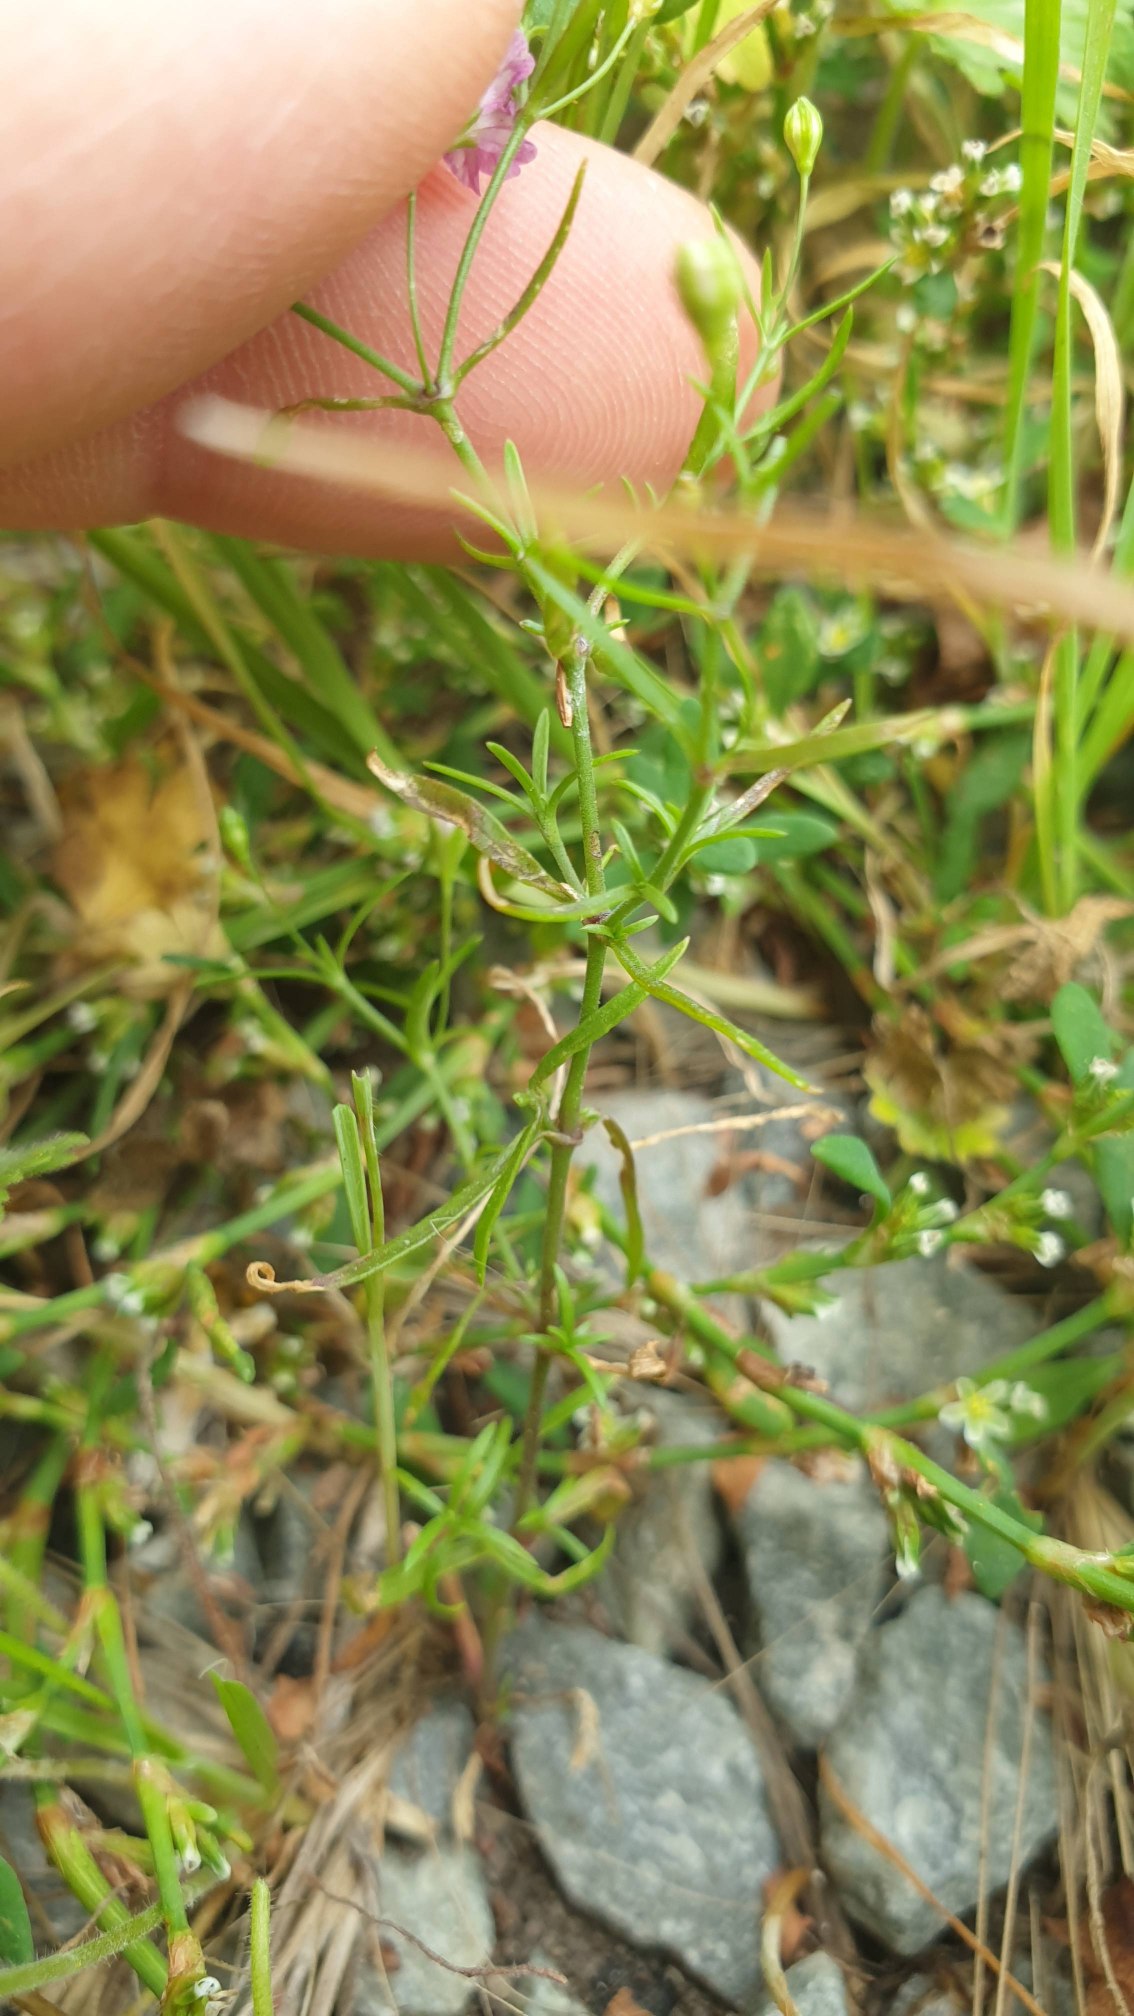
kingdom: Plantae
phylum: Tracheophyta
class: Magnoliopsida
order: Caryophyllales
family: Caryophyllaceae
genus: Psammophiliella
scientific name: Psammophiliella muralis
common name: Mur-gipsurt
